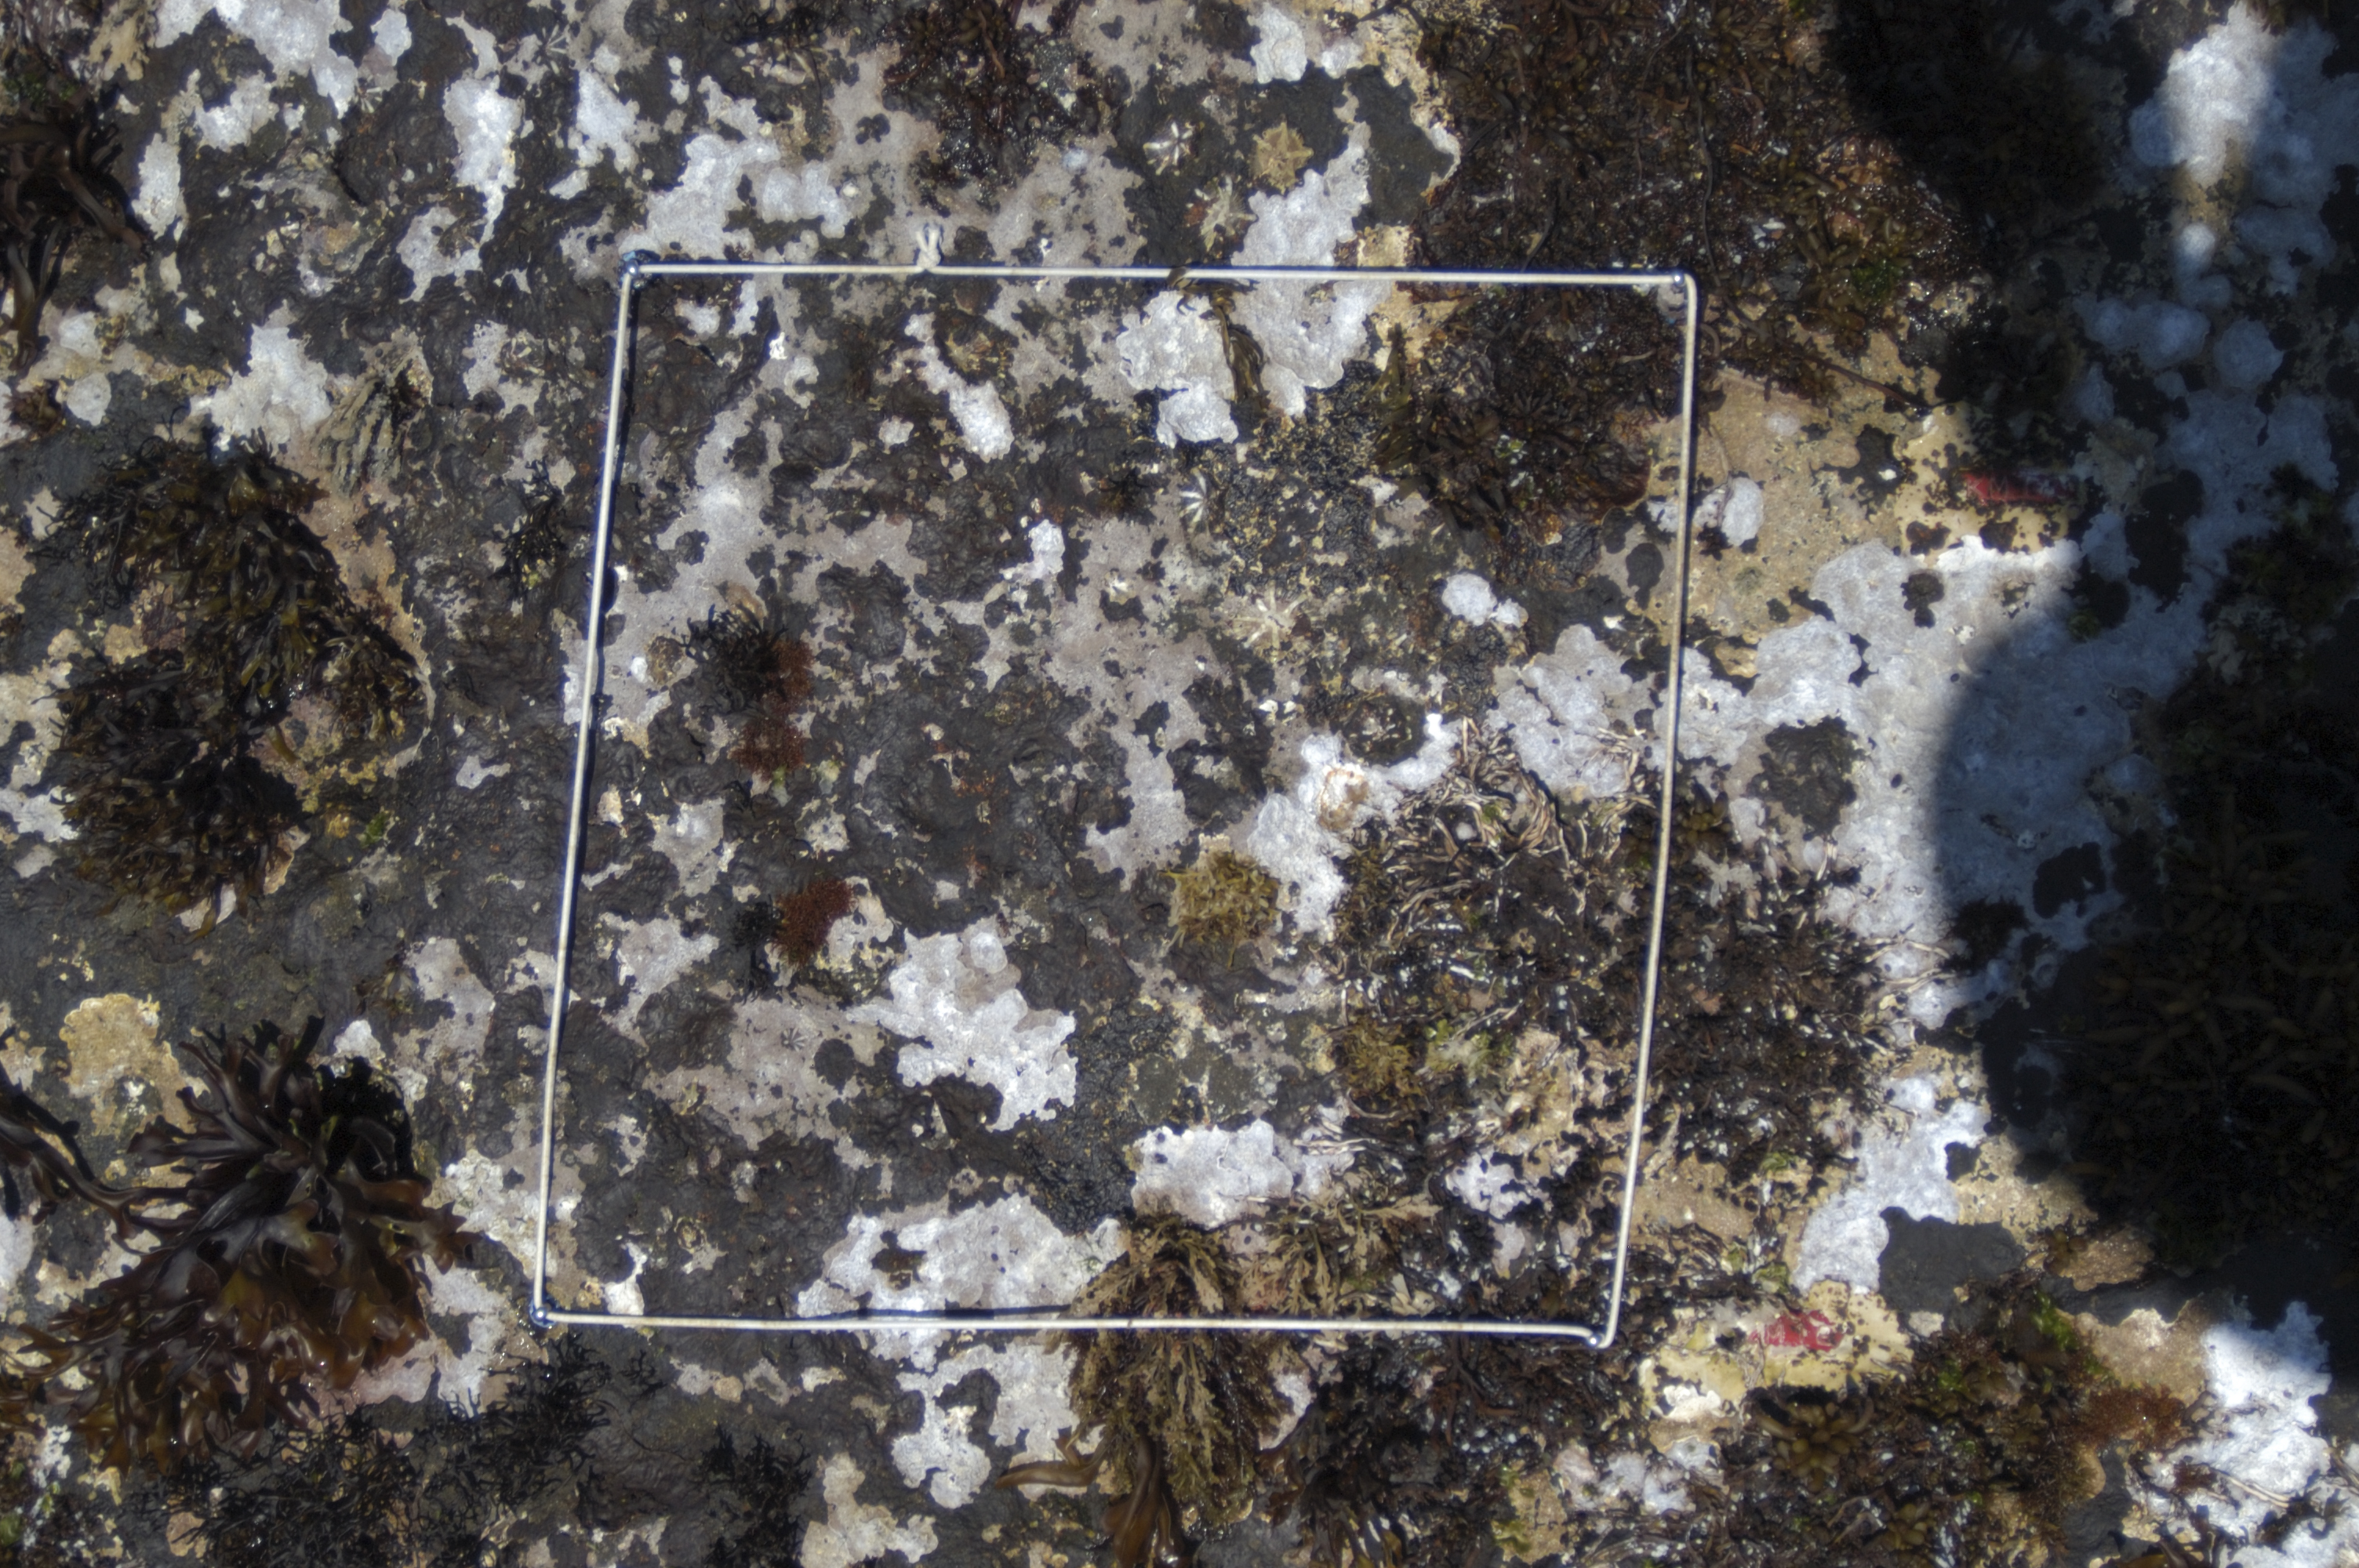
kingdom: Animalia
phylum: Arthropoda
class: Maxillopoda
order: Sessilia
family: Chthamalidae
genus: Chthamalus
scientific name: Chthamalus challengeri
